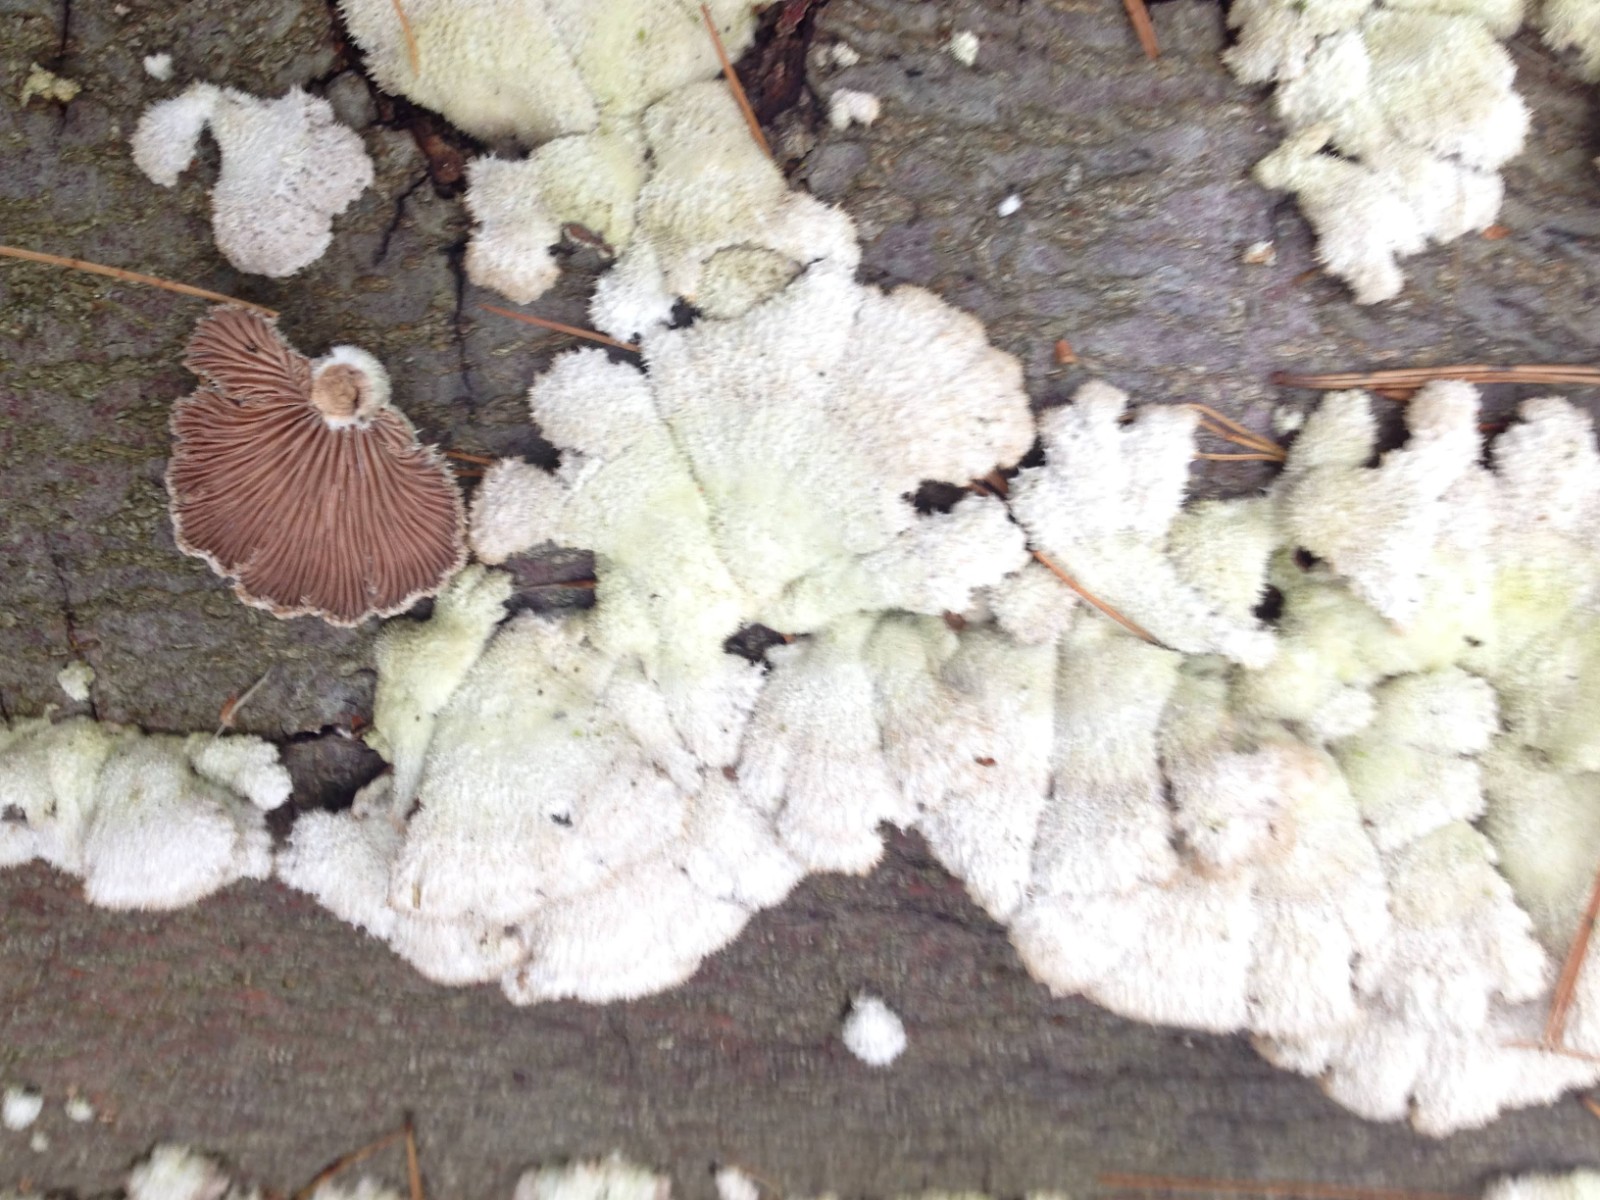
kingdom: Fungi
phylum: Basidiomycota
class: Agaricomycetes
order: Agaricales
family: Schizophyllaceae
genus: Schizophyllum
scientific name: Schizophyllum commune
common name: kløvblad
